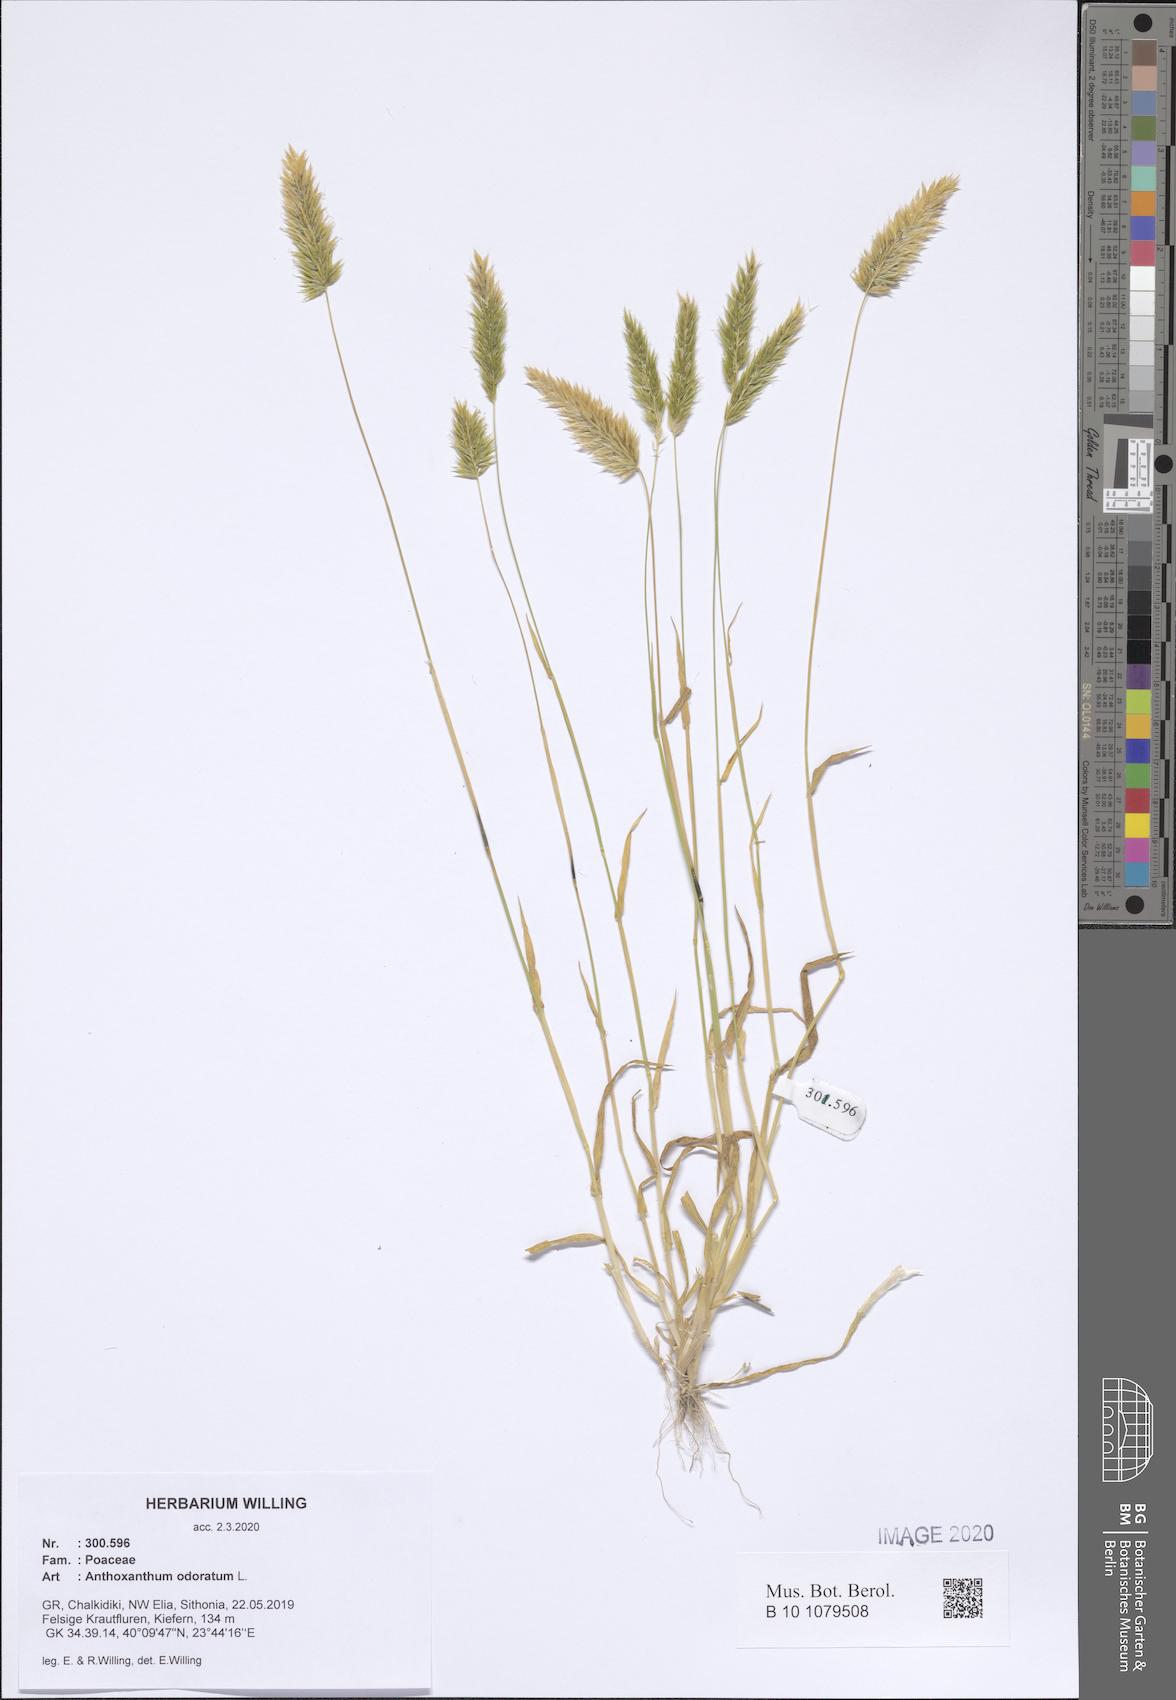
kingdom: Plantae
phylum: Tracheophyta
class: Liliopsida
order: Poales
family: Poaceae
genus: Anthoxanthum
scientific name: Anthoxanthum odoratum
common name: Sweet vernalgrass
